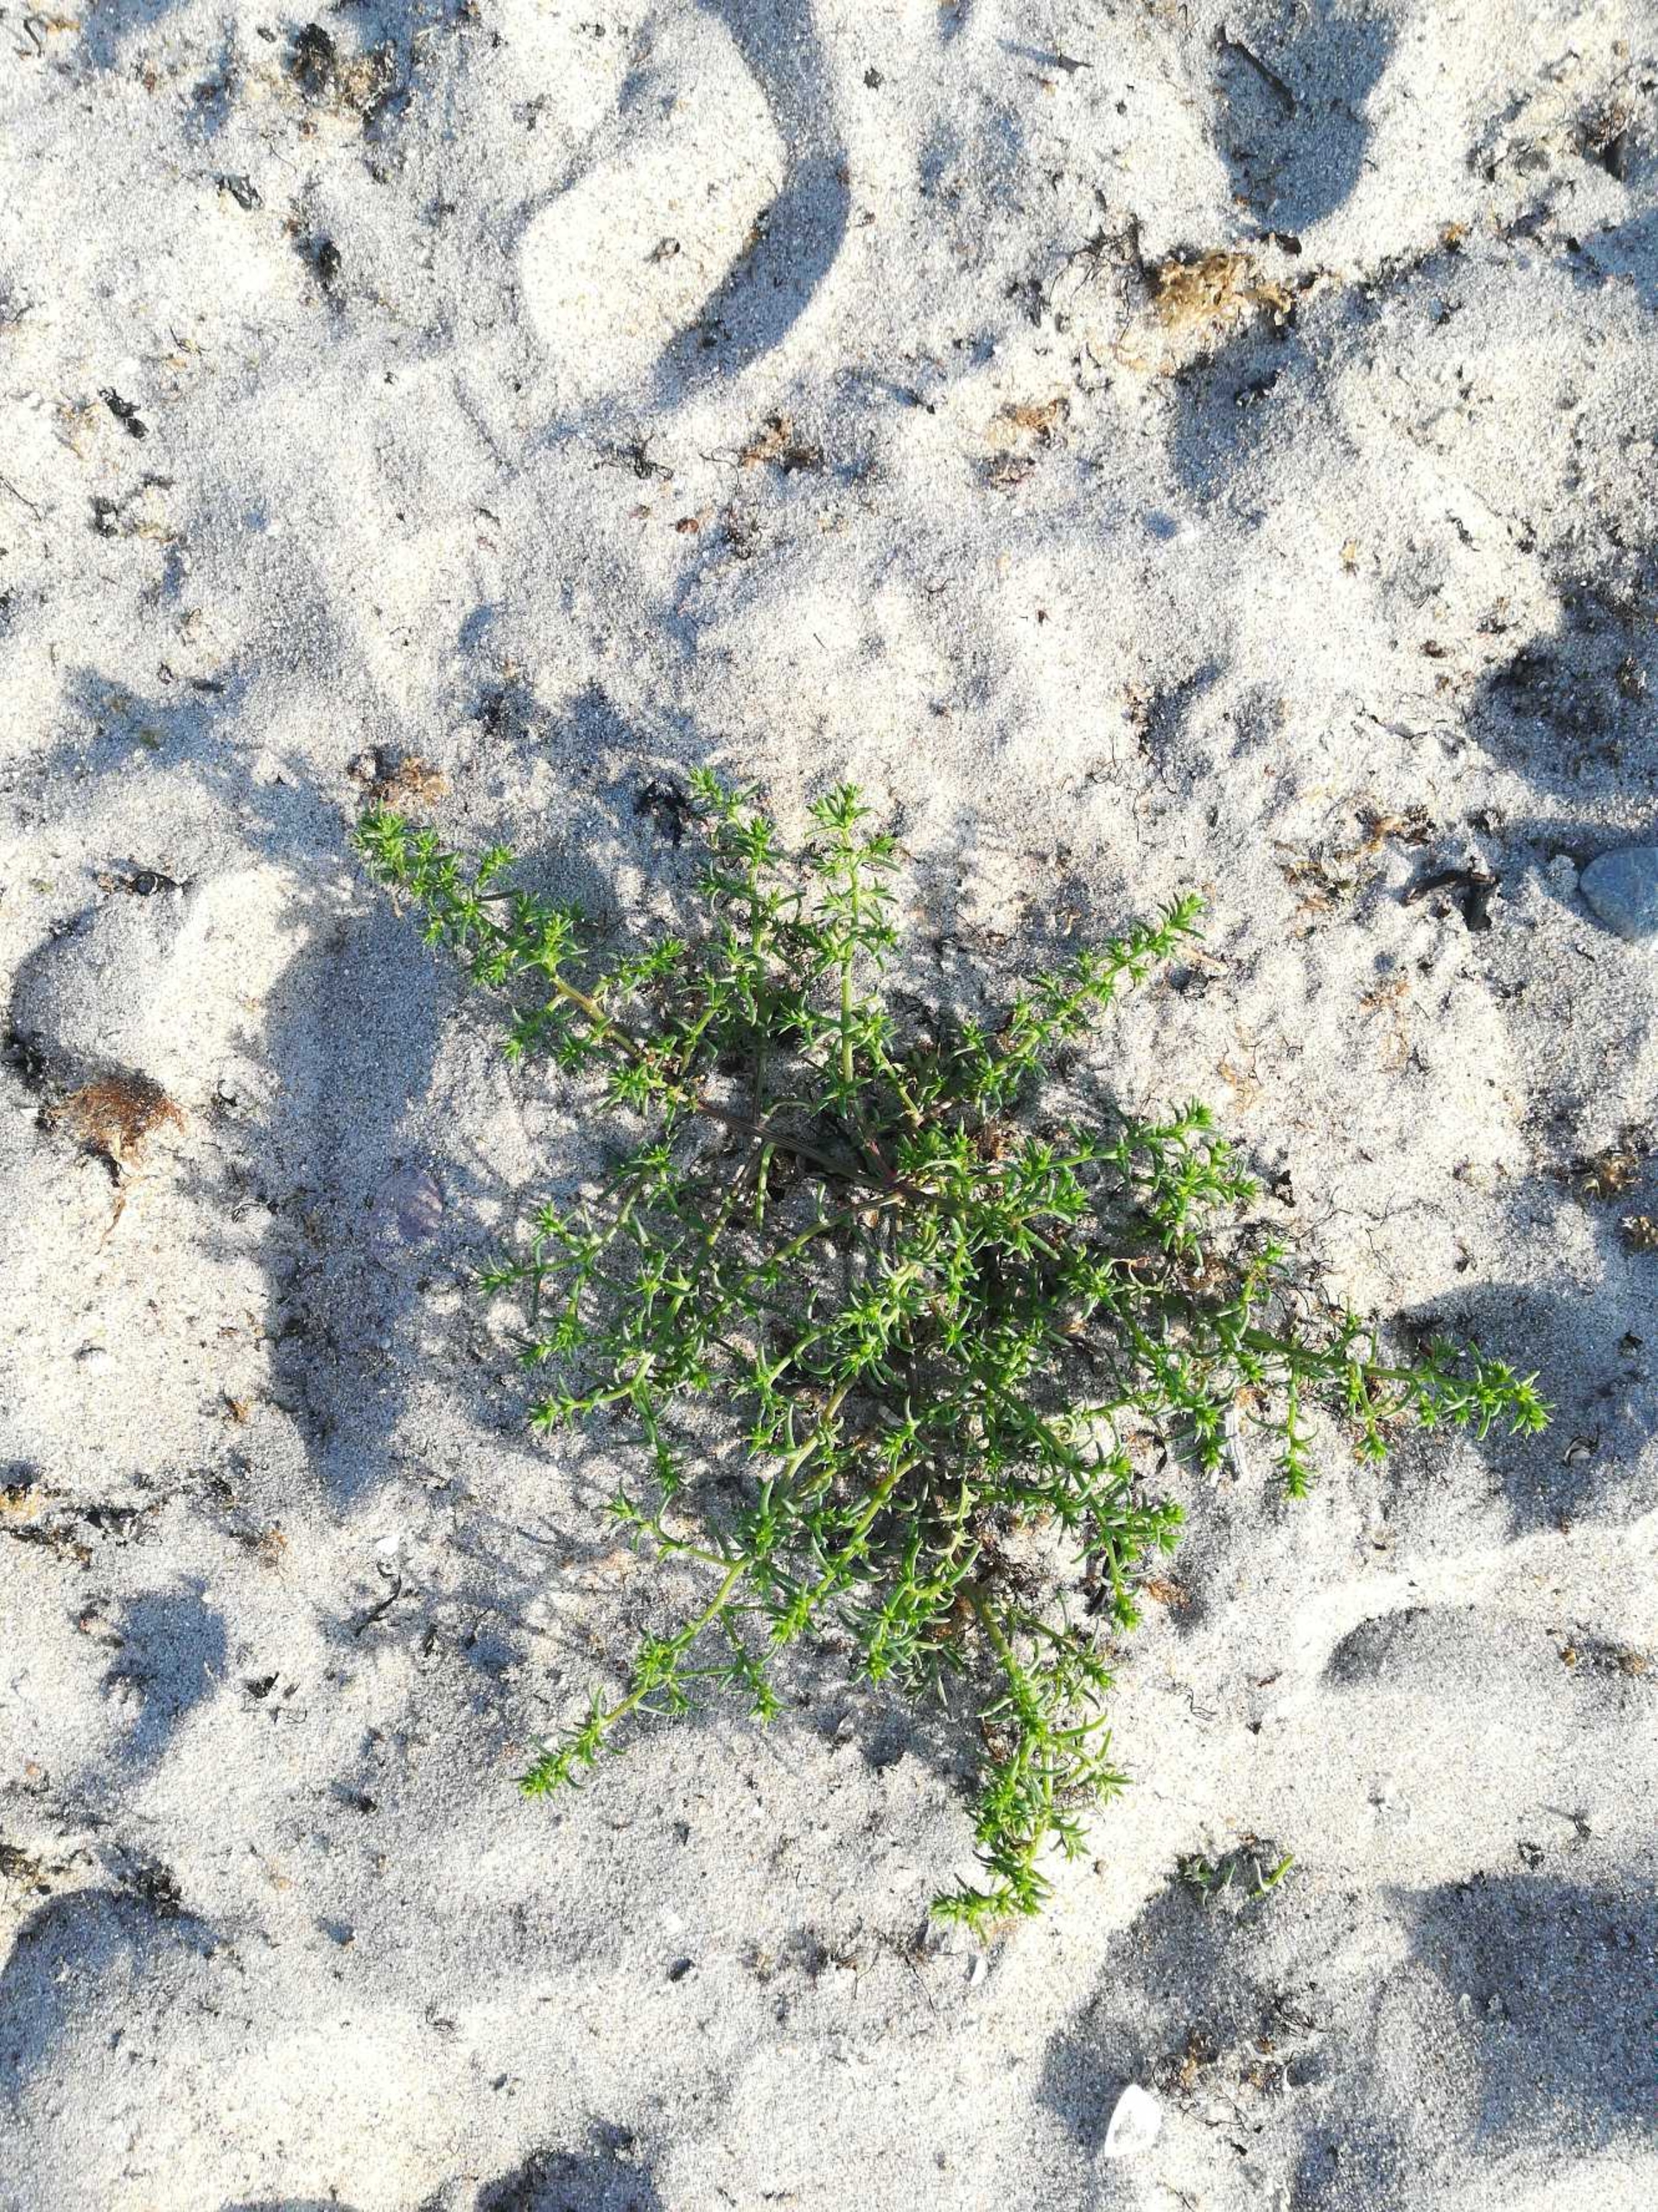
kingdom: Plantae
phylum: Tracheophyta
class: Magnoliopsida
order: Caryophyllales
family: Amaranthaceae
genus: Salsola
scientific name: Salsola kali
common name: Sodaurt
